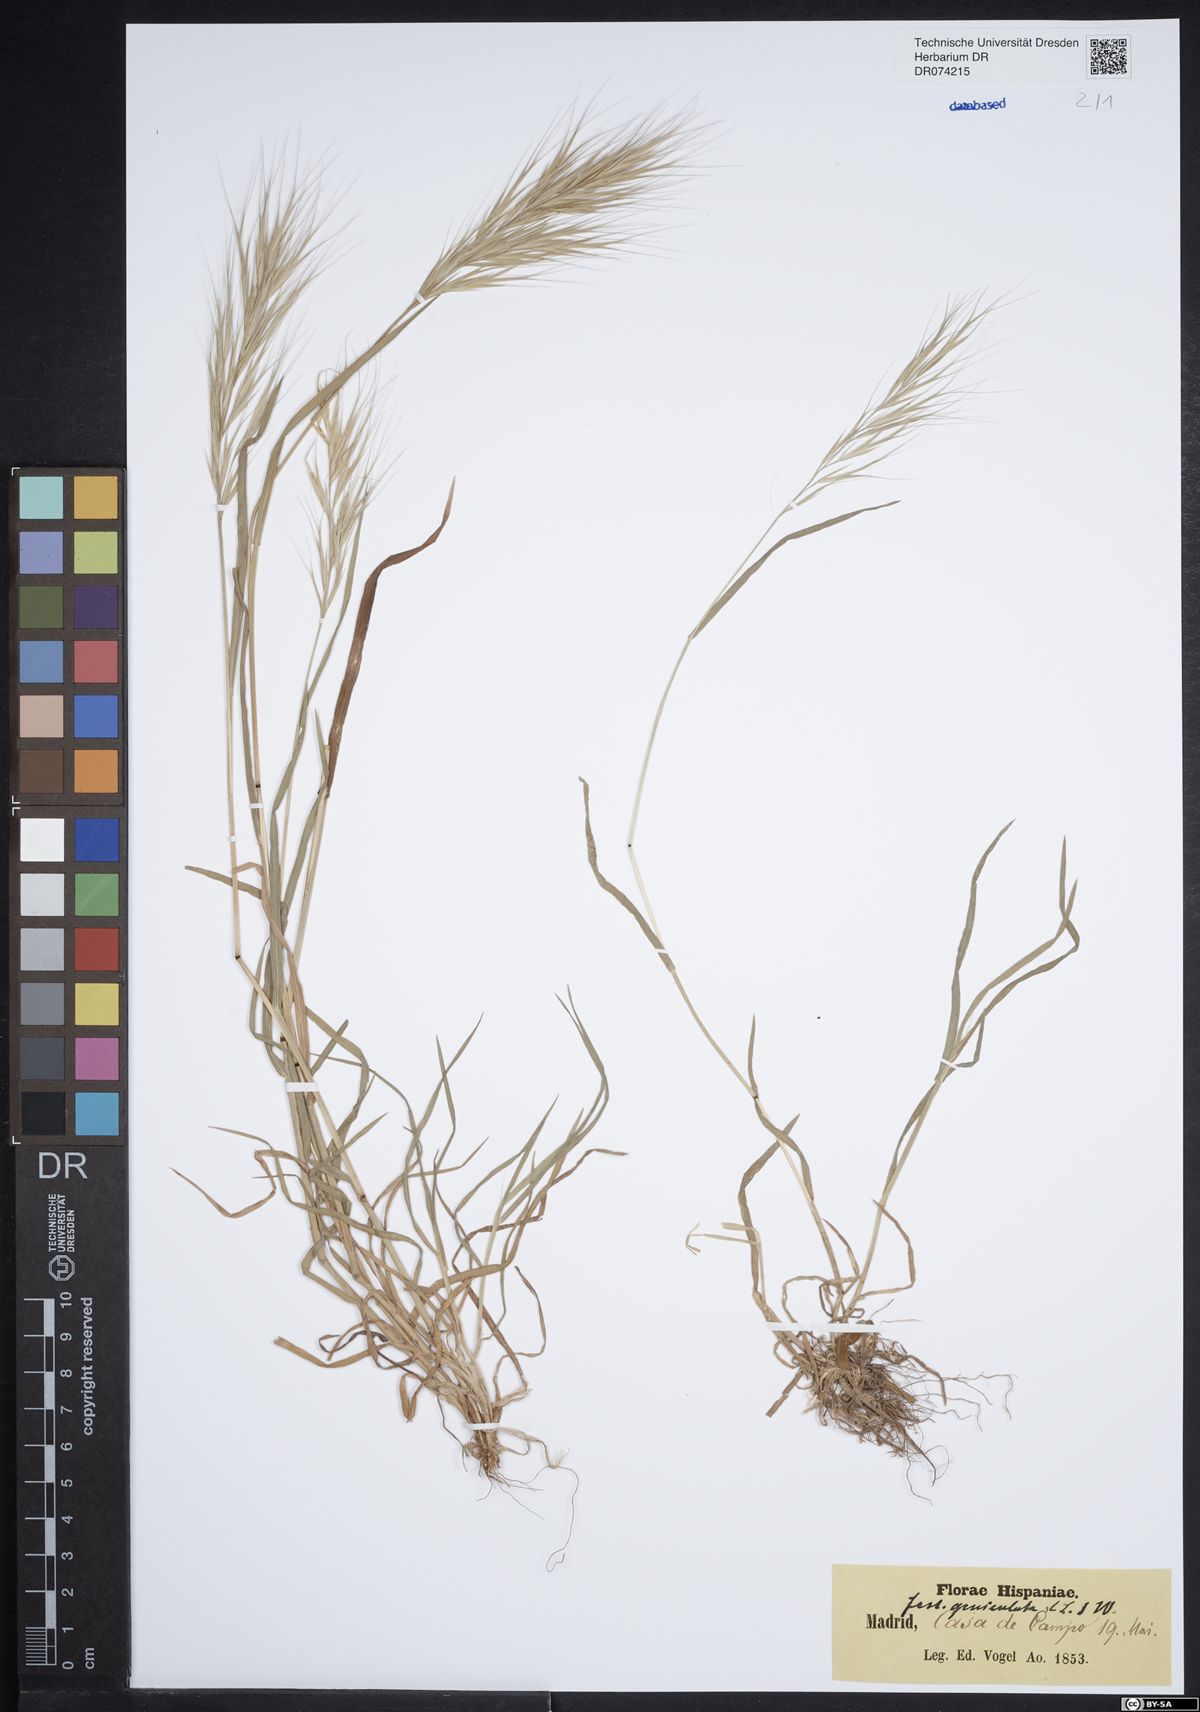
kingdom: Plantae
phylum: Tracheophyta
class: Liliopsida
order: Poales
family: Poaceae
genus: Festuca
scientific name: Festuca geniculata
